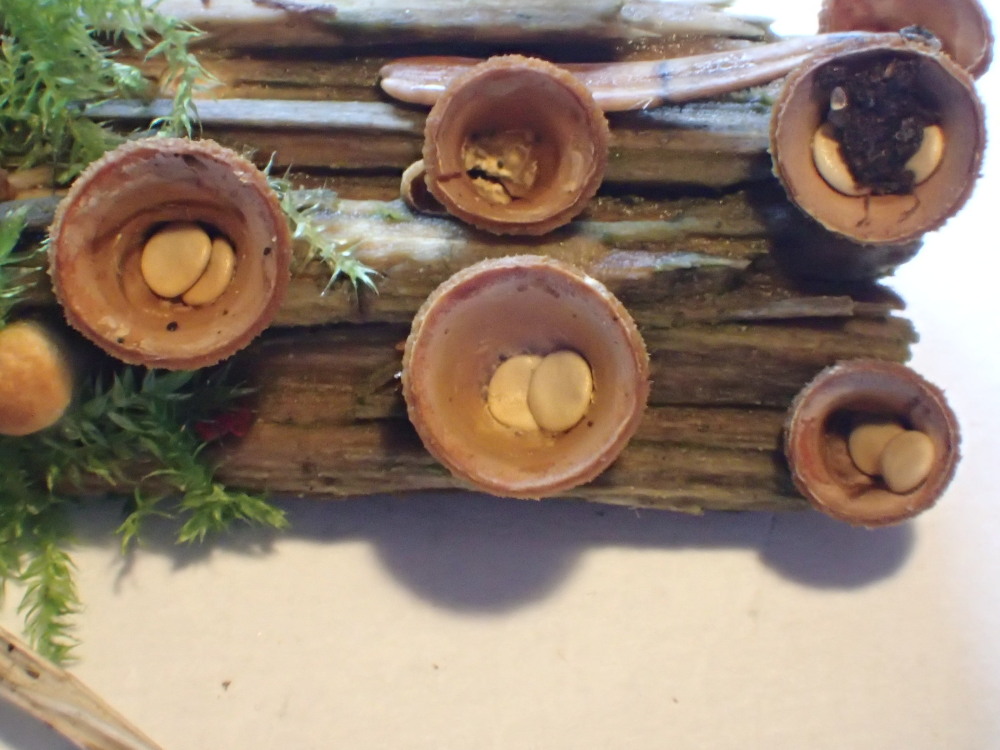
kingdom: Fungi
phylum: Basidiomycota
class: Agaricomycetes
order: Agaricales
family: Nidulariaceae
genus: Crucibulum
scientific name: Crucibulum crucibuliforme
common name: krukkesvamp
